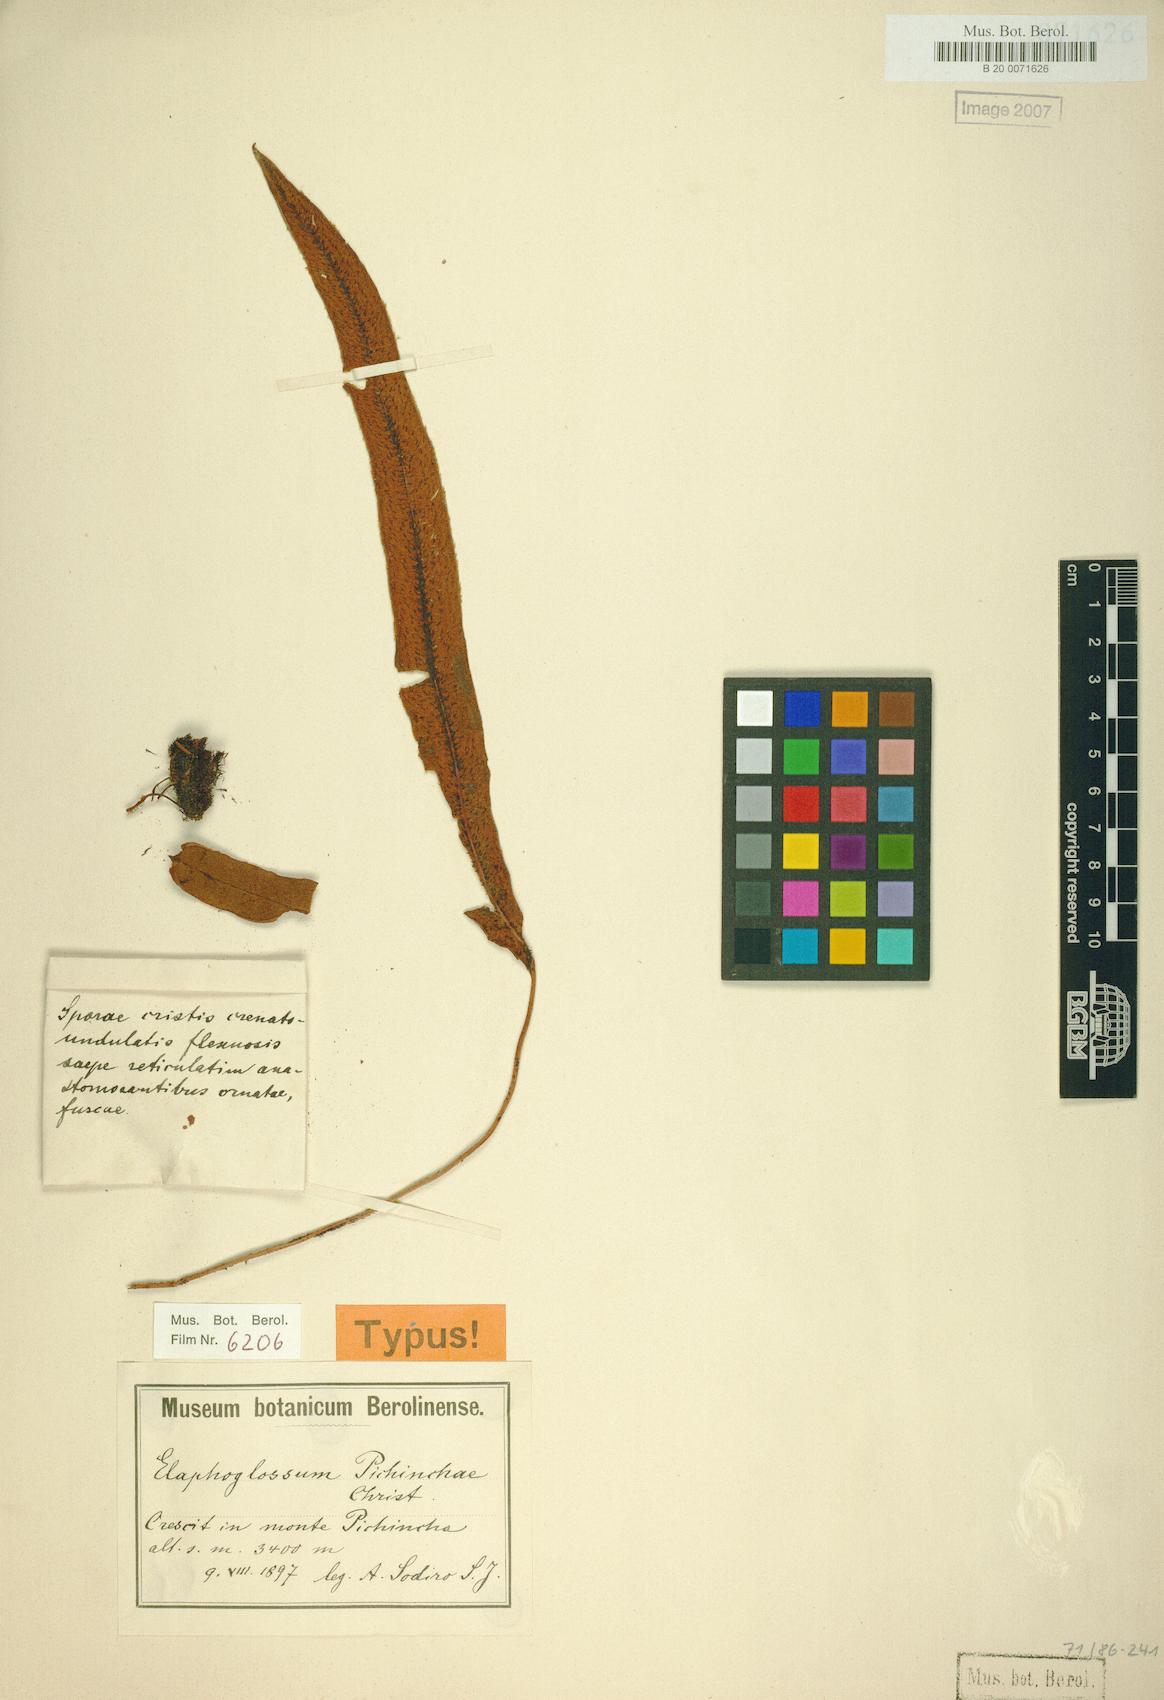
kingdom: Plantae
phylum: Tracheophyta
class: Polypodiopsida
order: Polypodiales
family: Dryopteridaceae
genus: Elaphoglossum
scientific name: Elaphoglossum rimbachii
